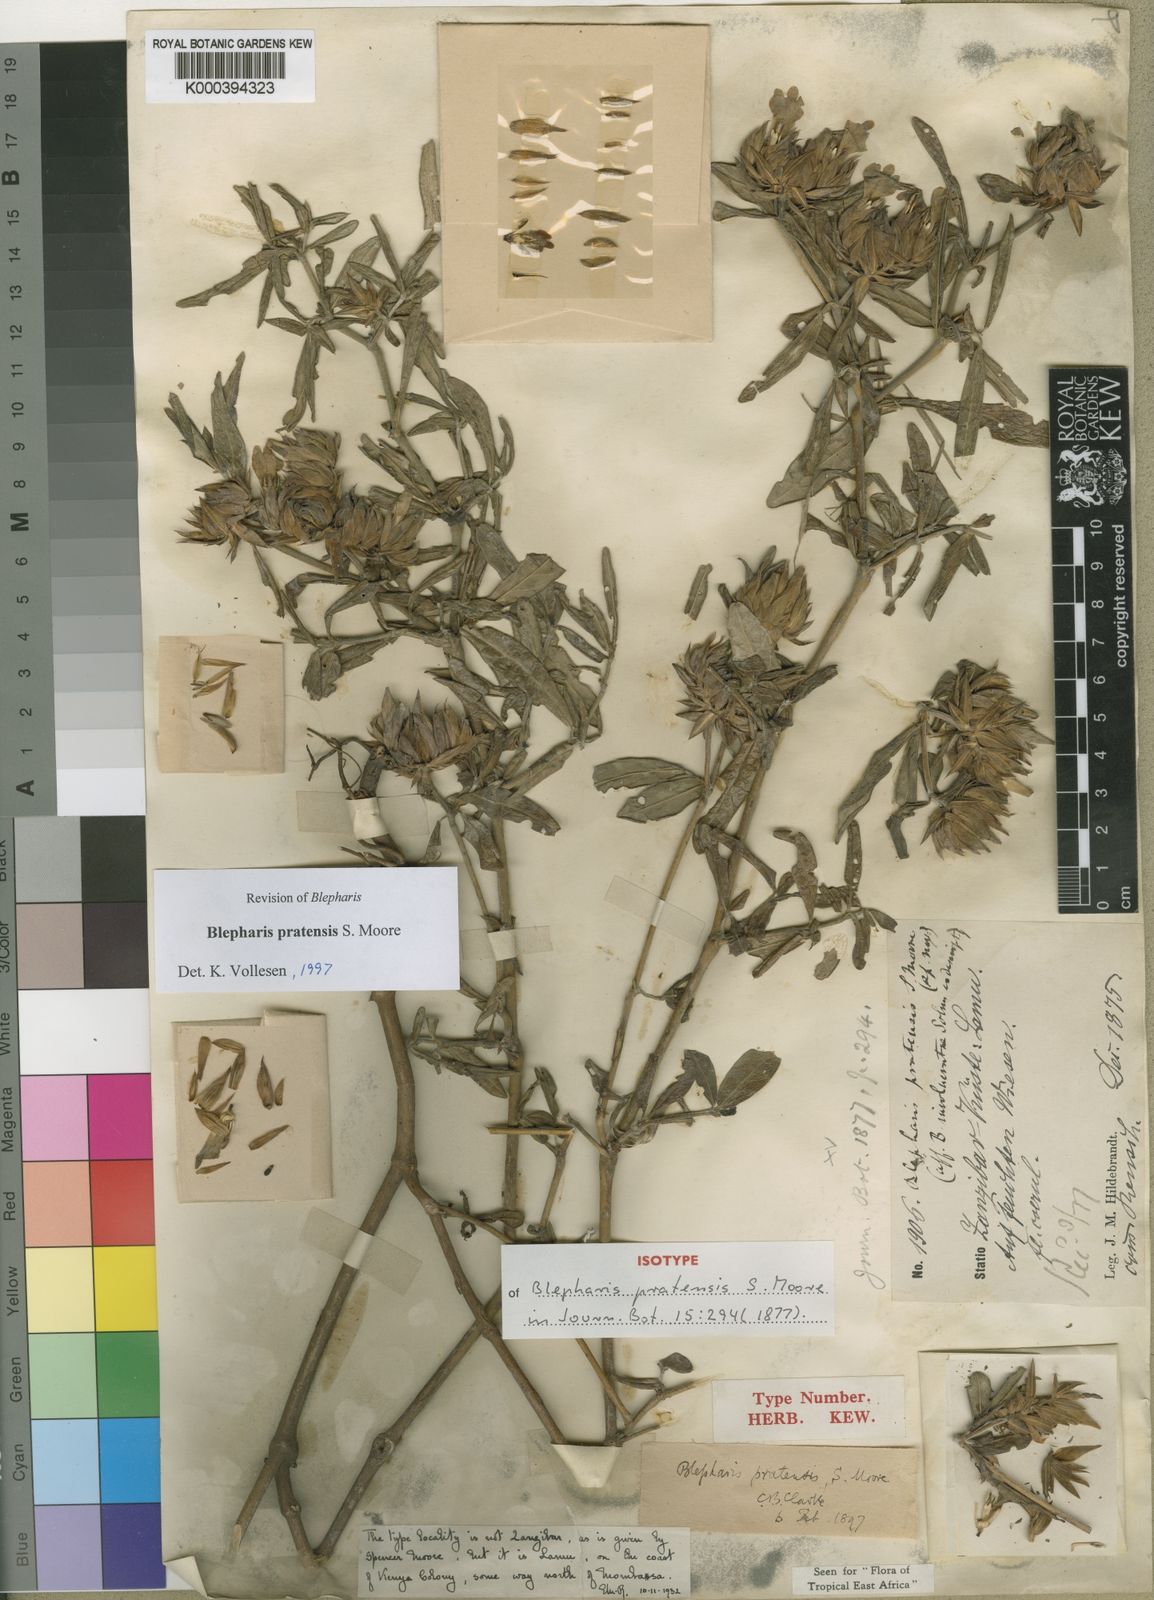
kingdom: Plantae
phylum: Tracheophyta
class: Magnoliopsida
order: Lamiales
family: Acanthaceae
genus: Blepharis
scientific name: Blepharis pratensis
